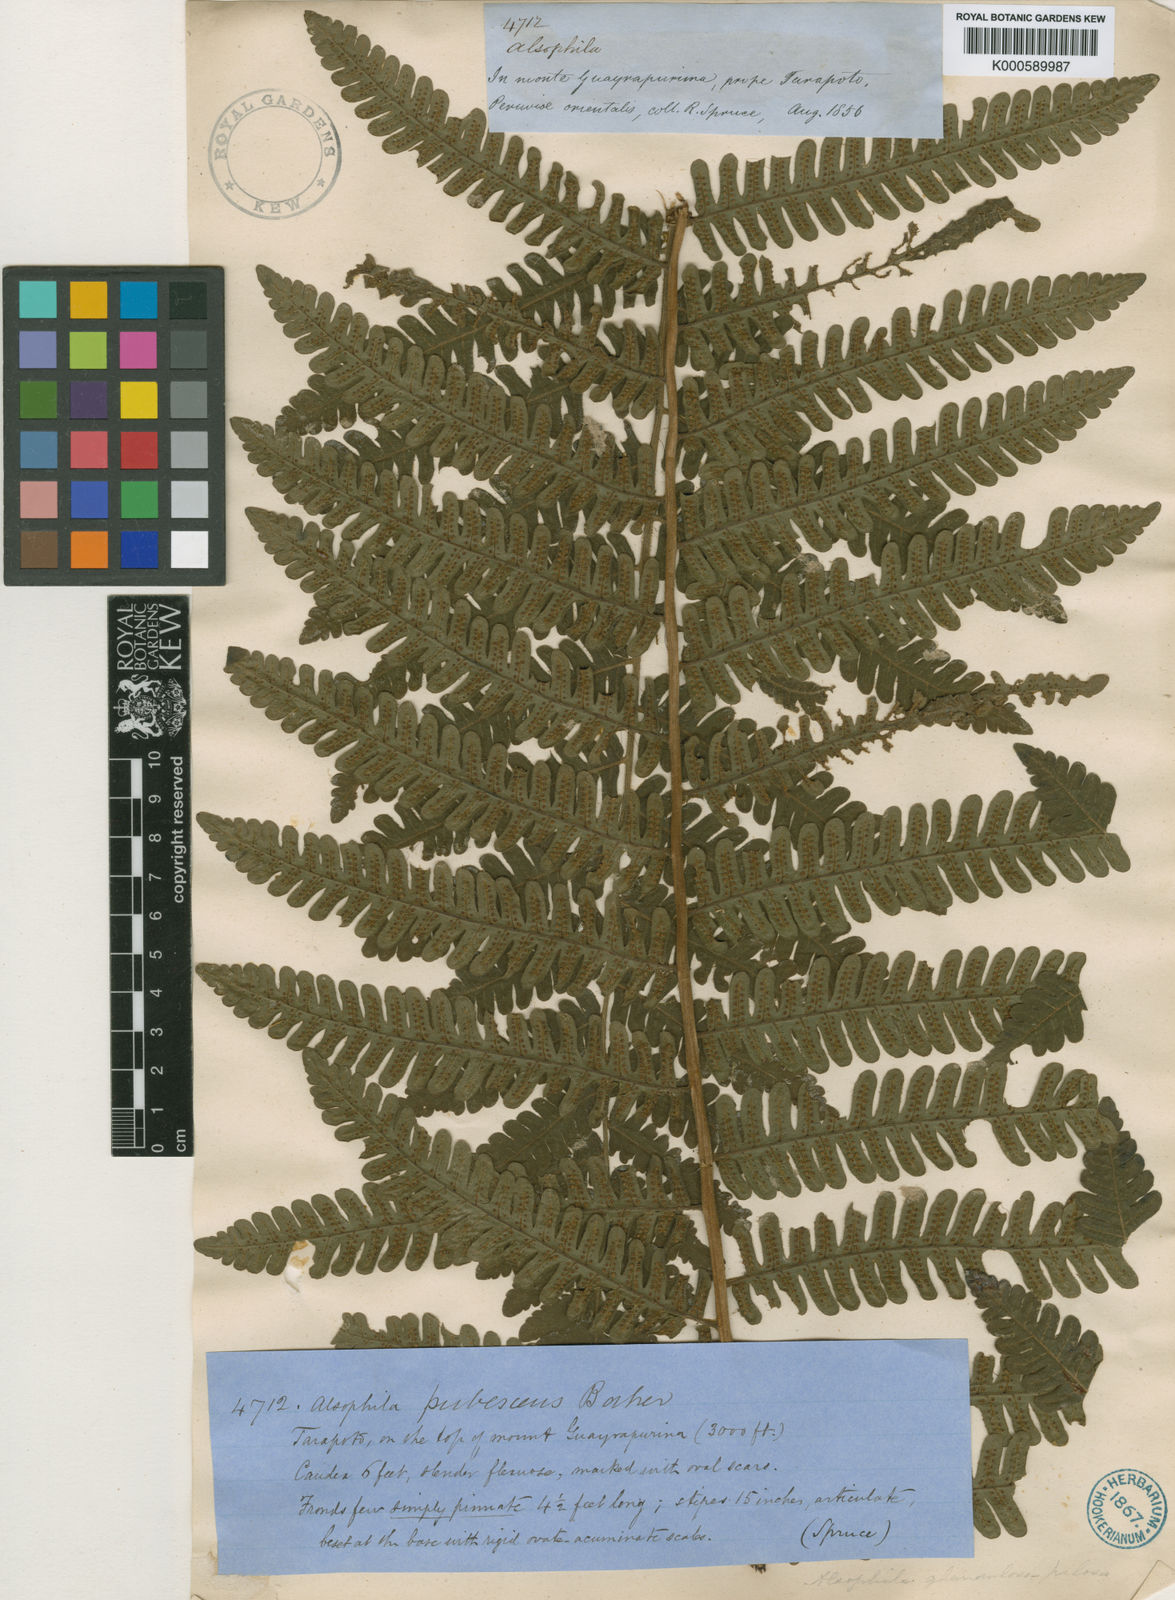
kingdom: Plantae
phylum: Tracheophyta
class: Polypodiopsida
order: Cyatheales
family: Cyatheaceae
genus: Alsophila
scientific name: Alsophila auneae
